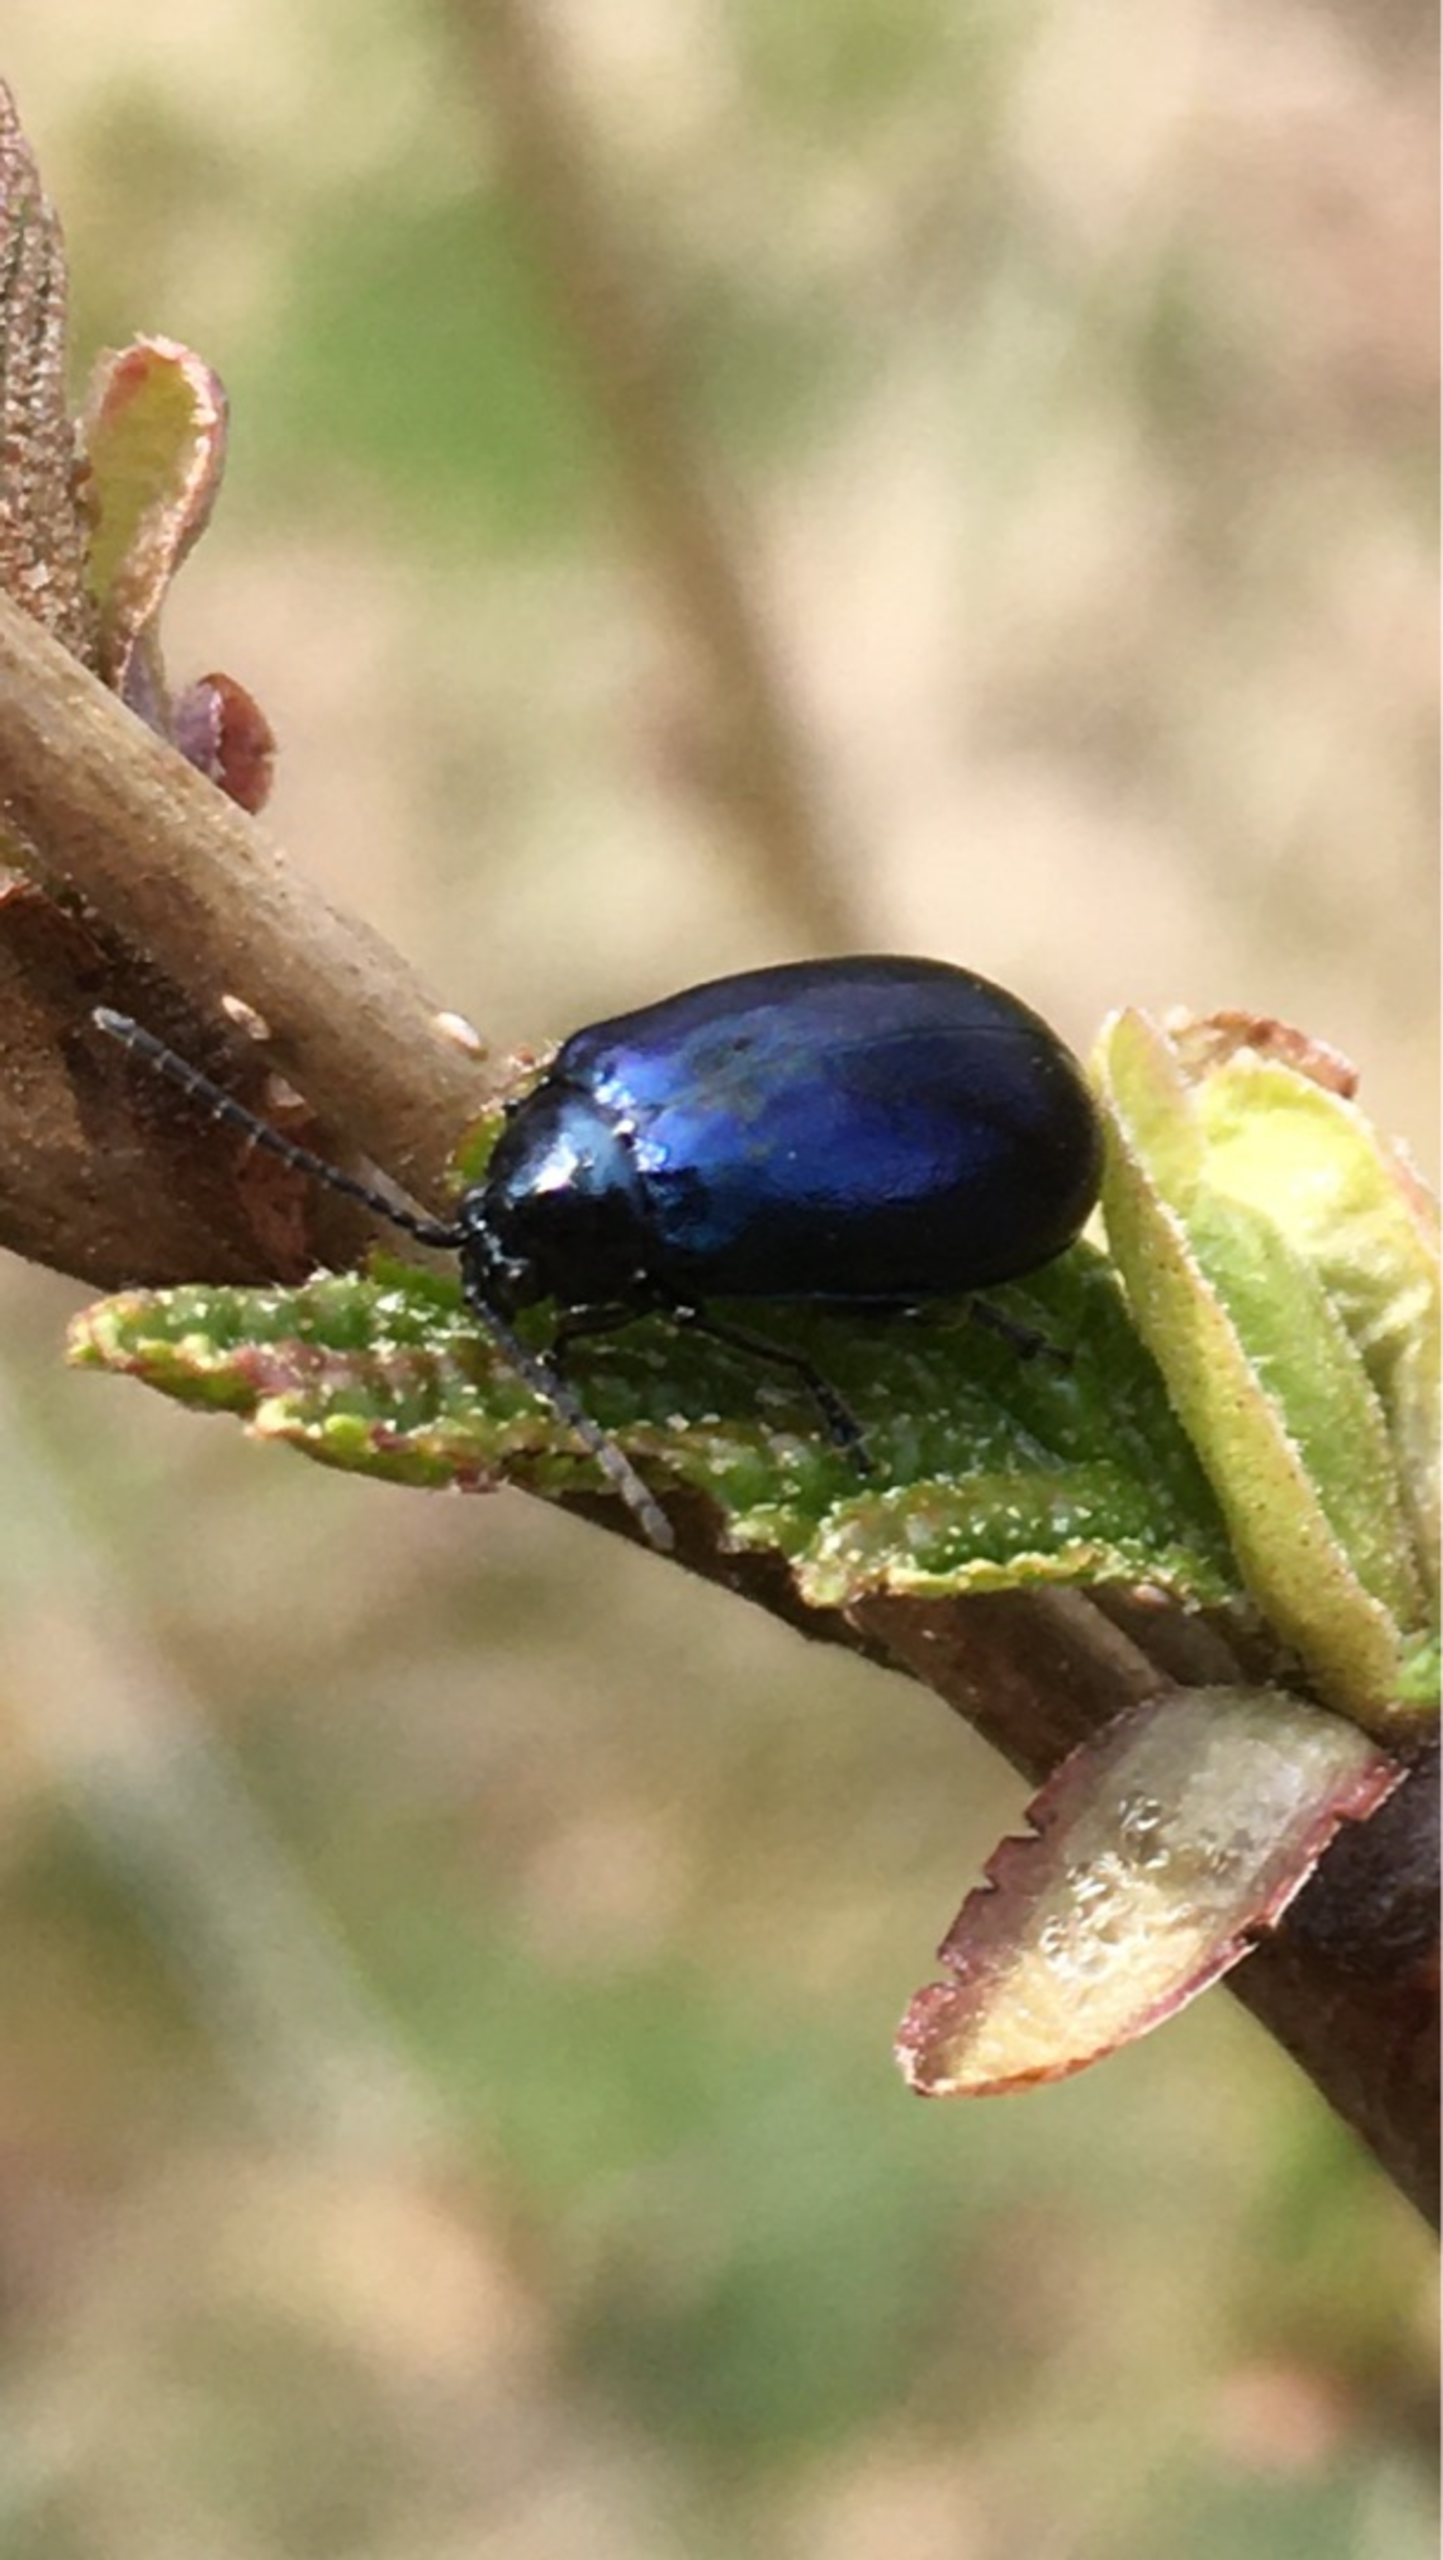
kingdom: Animalia
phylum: Arthropoda
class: Insecta
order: Coleoptera
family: Chrysomelidae
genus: Agelastica
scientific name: Agelastica alni
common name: Ellebladbille
